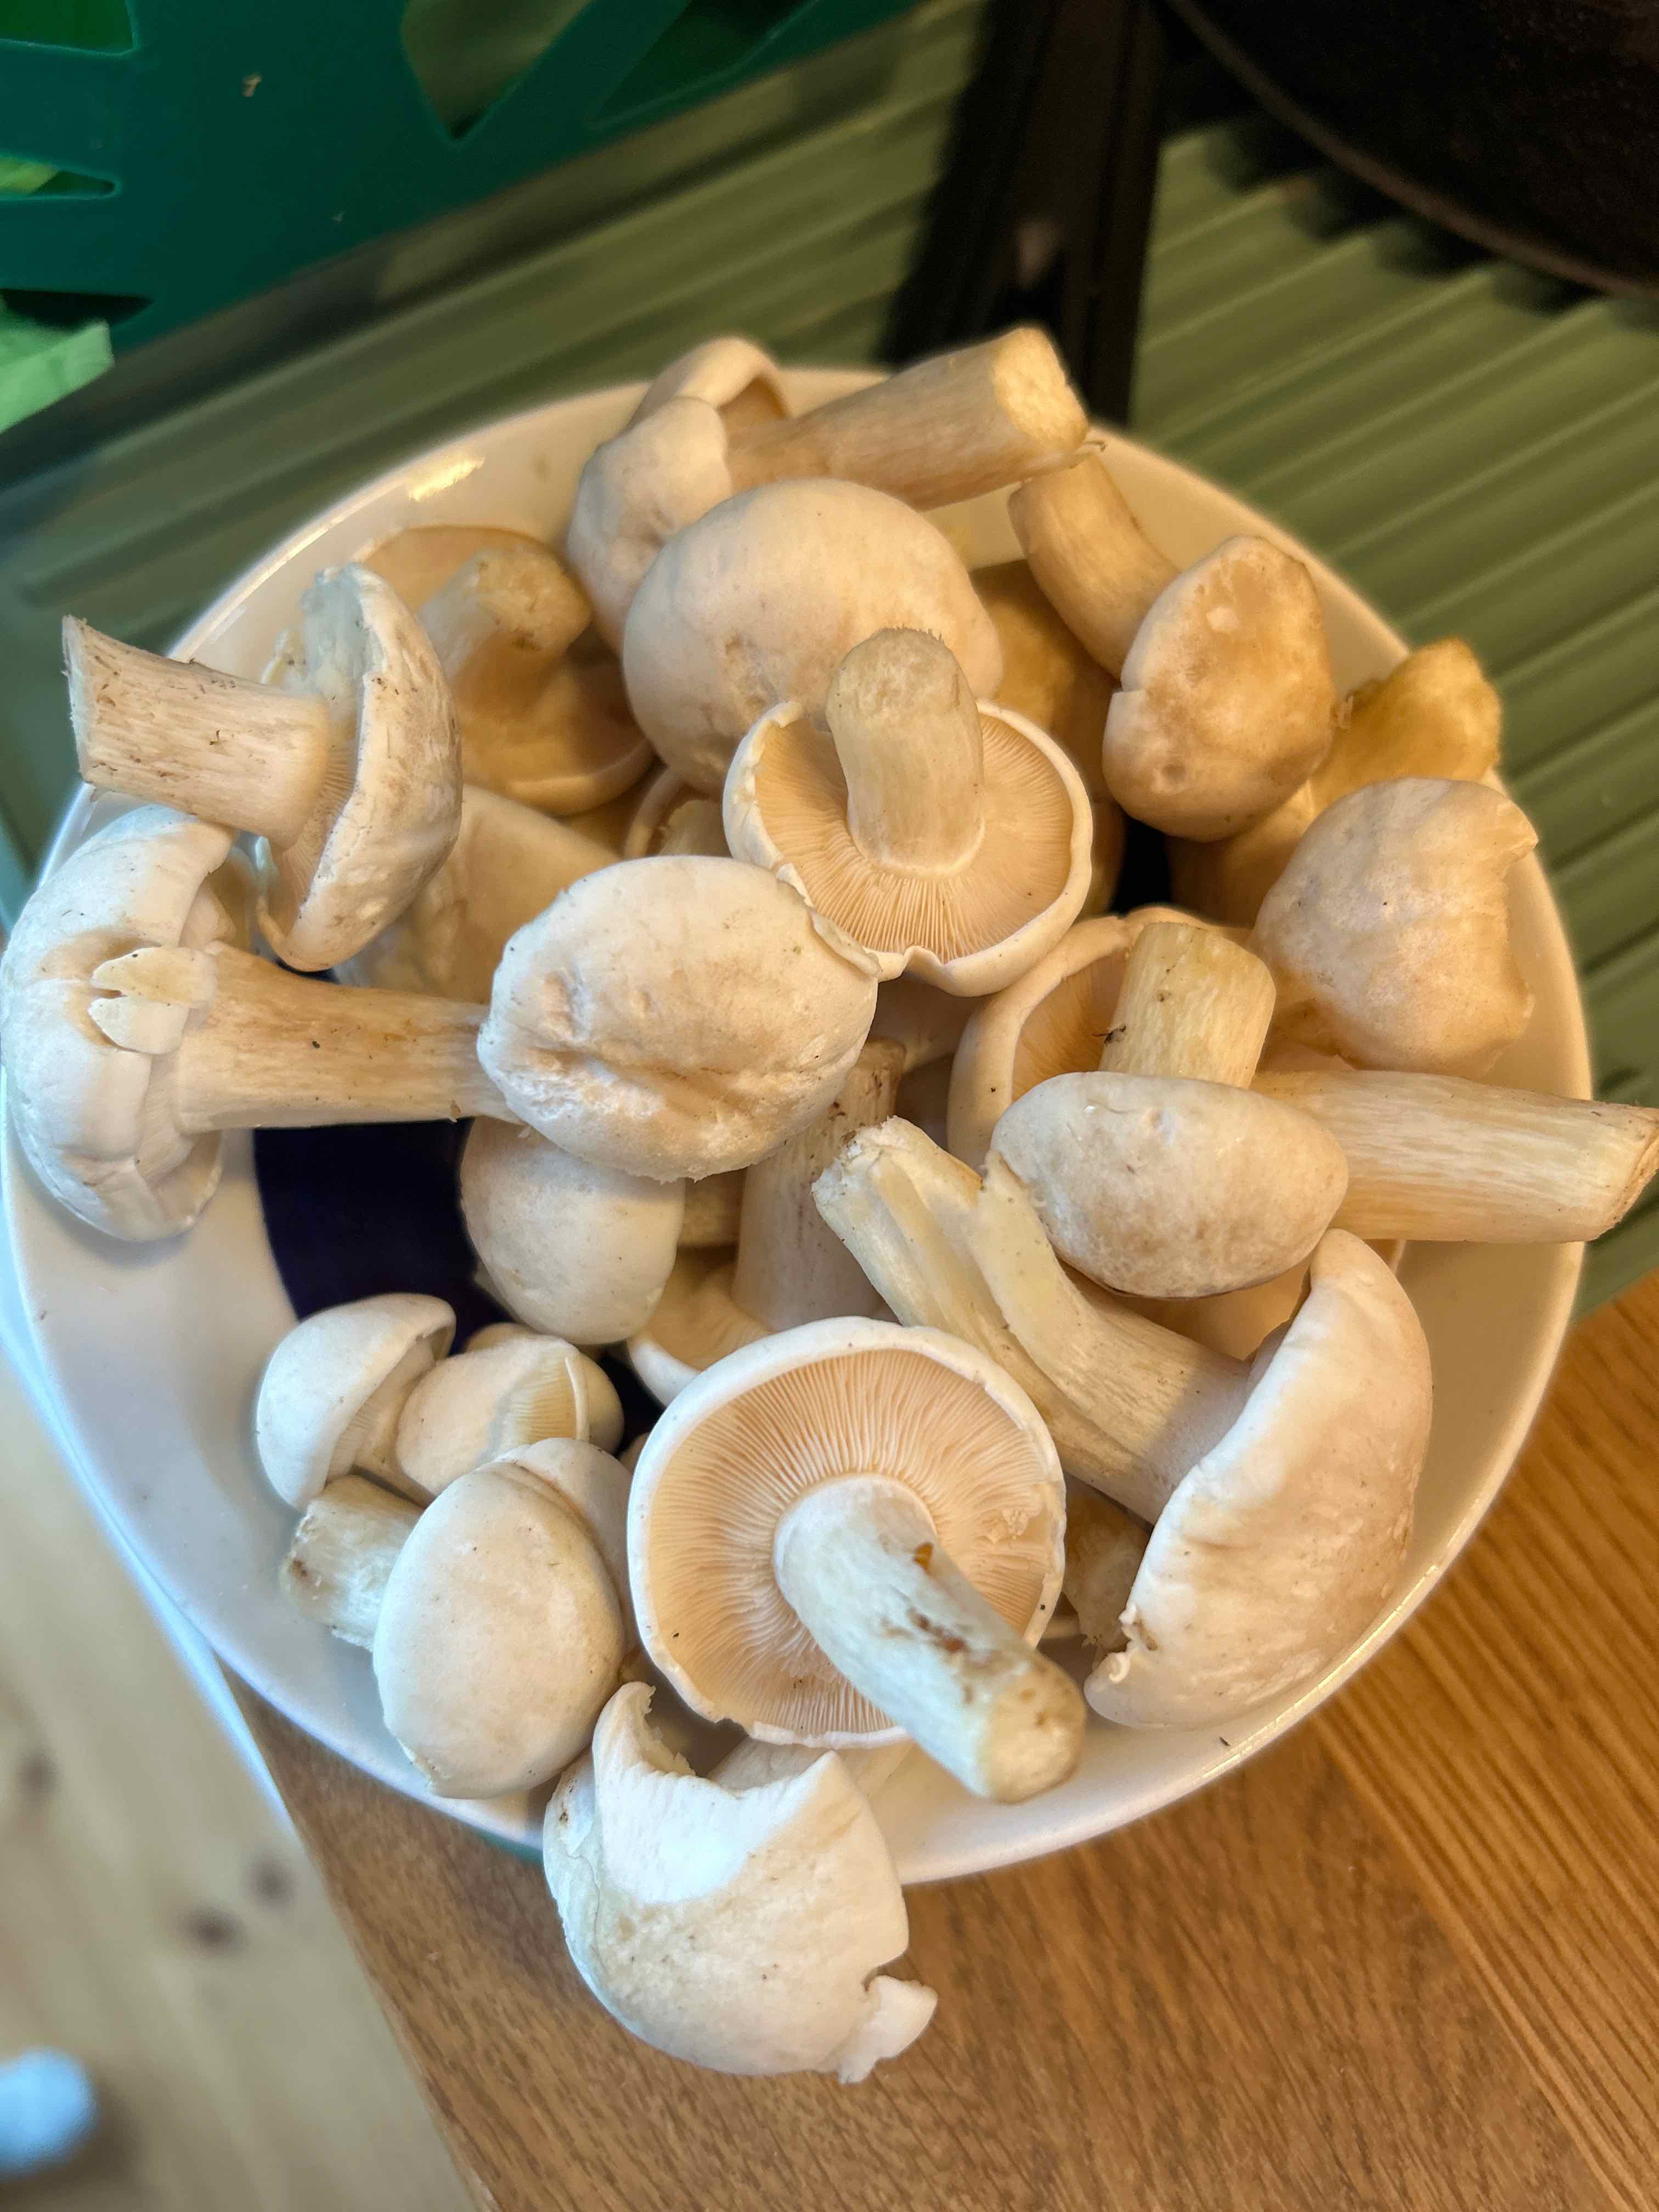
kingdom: Fungi
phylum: Basidiomycota
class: Agaricomycetes
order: Agaricales
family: Lyophyllaceae
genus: Calocybe
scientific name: Calocybe gambosa
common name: vårmusseron
